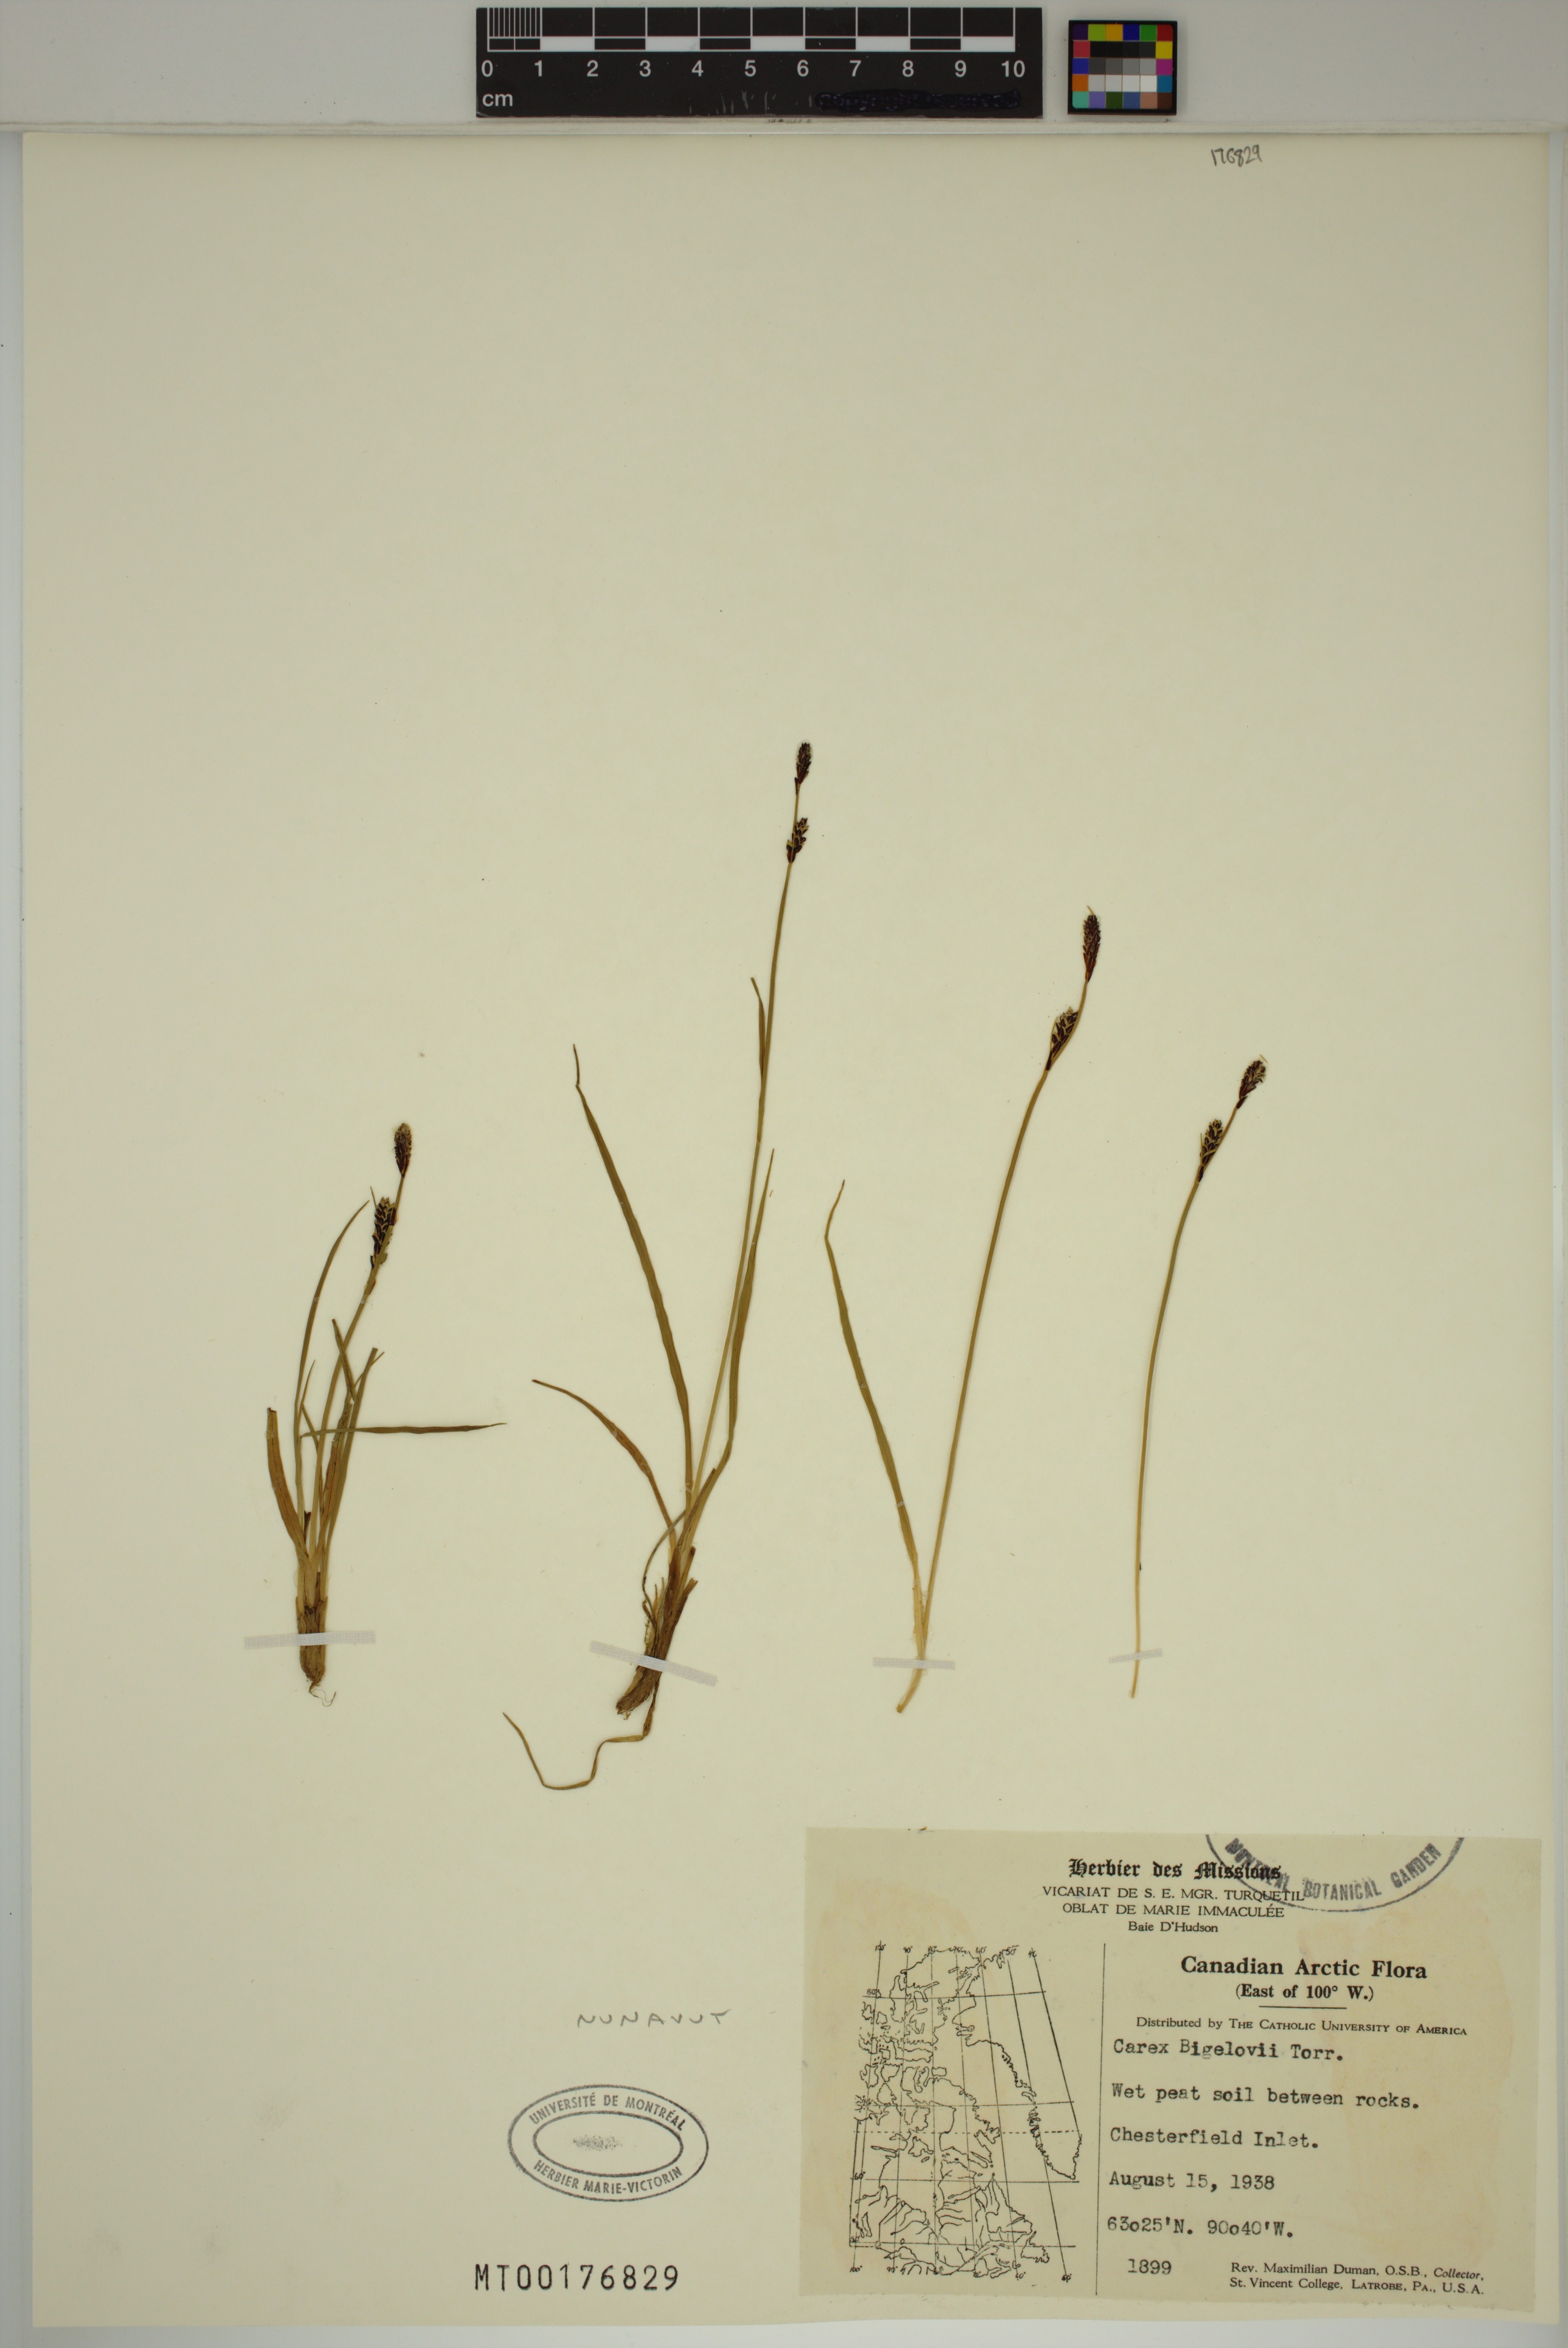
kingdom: Plantae
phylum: Tracheophyta
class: Liliopsida
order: Poales
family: Cyperaceae
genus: Carex
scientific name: Carex bigelowii
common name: Stiff sedge
